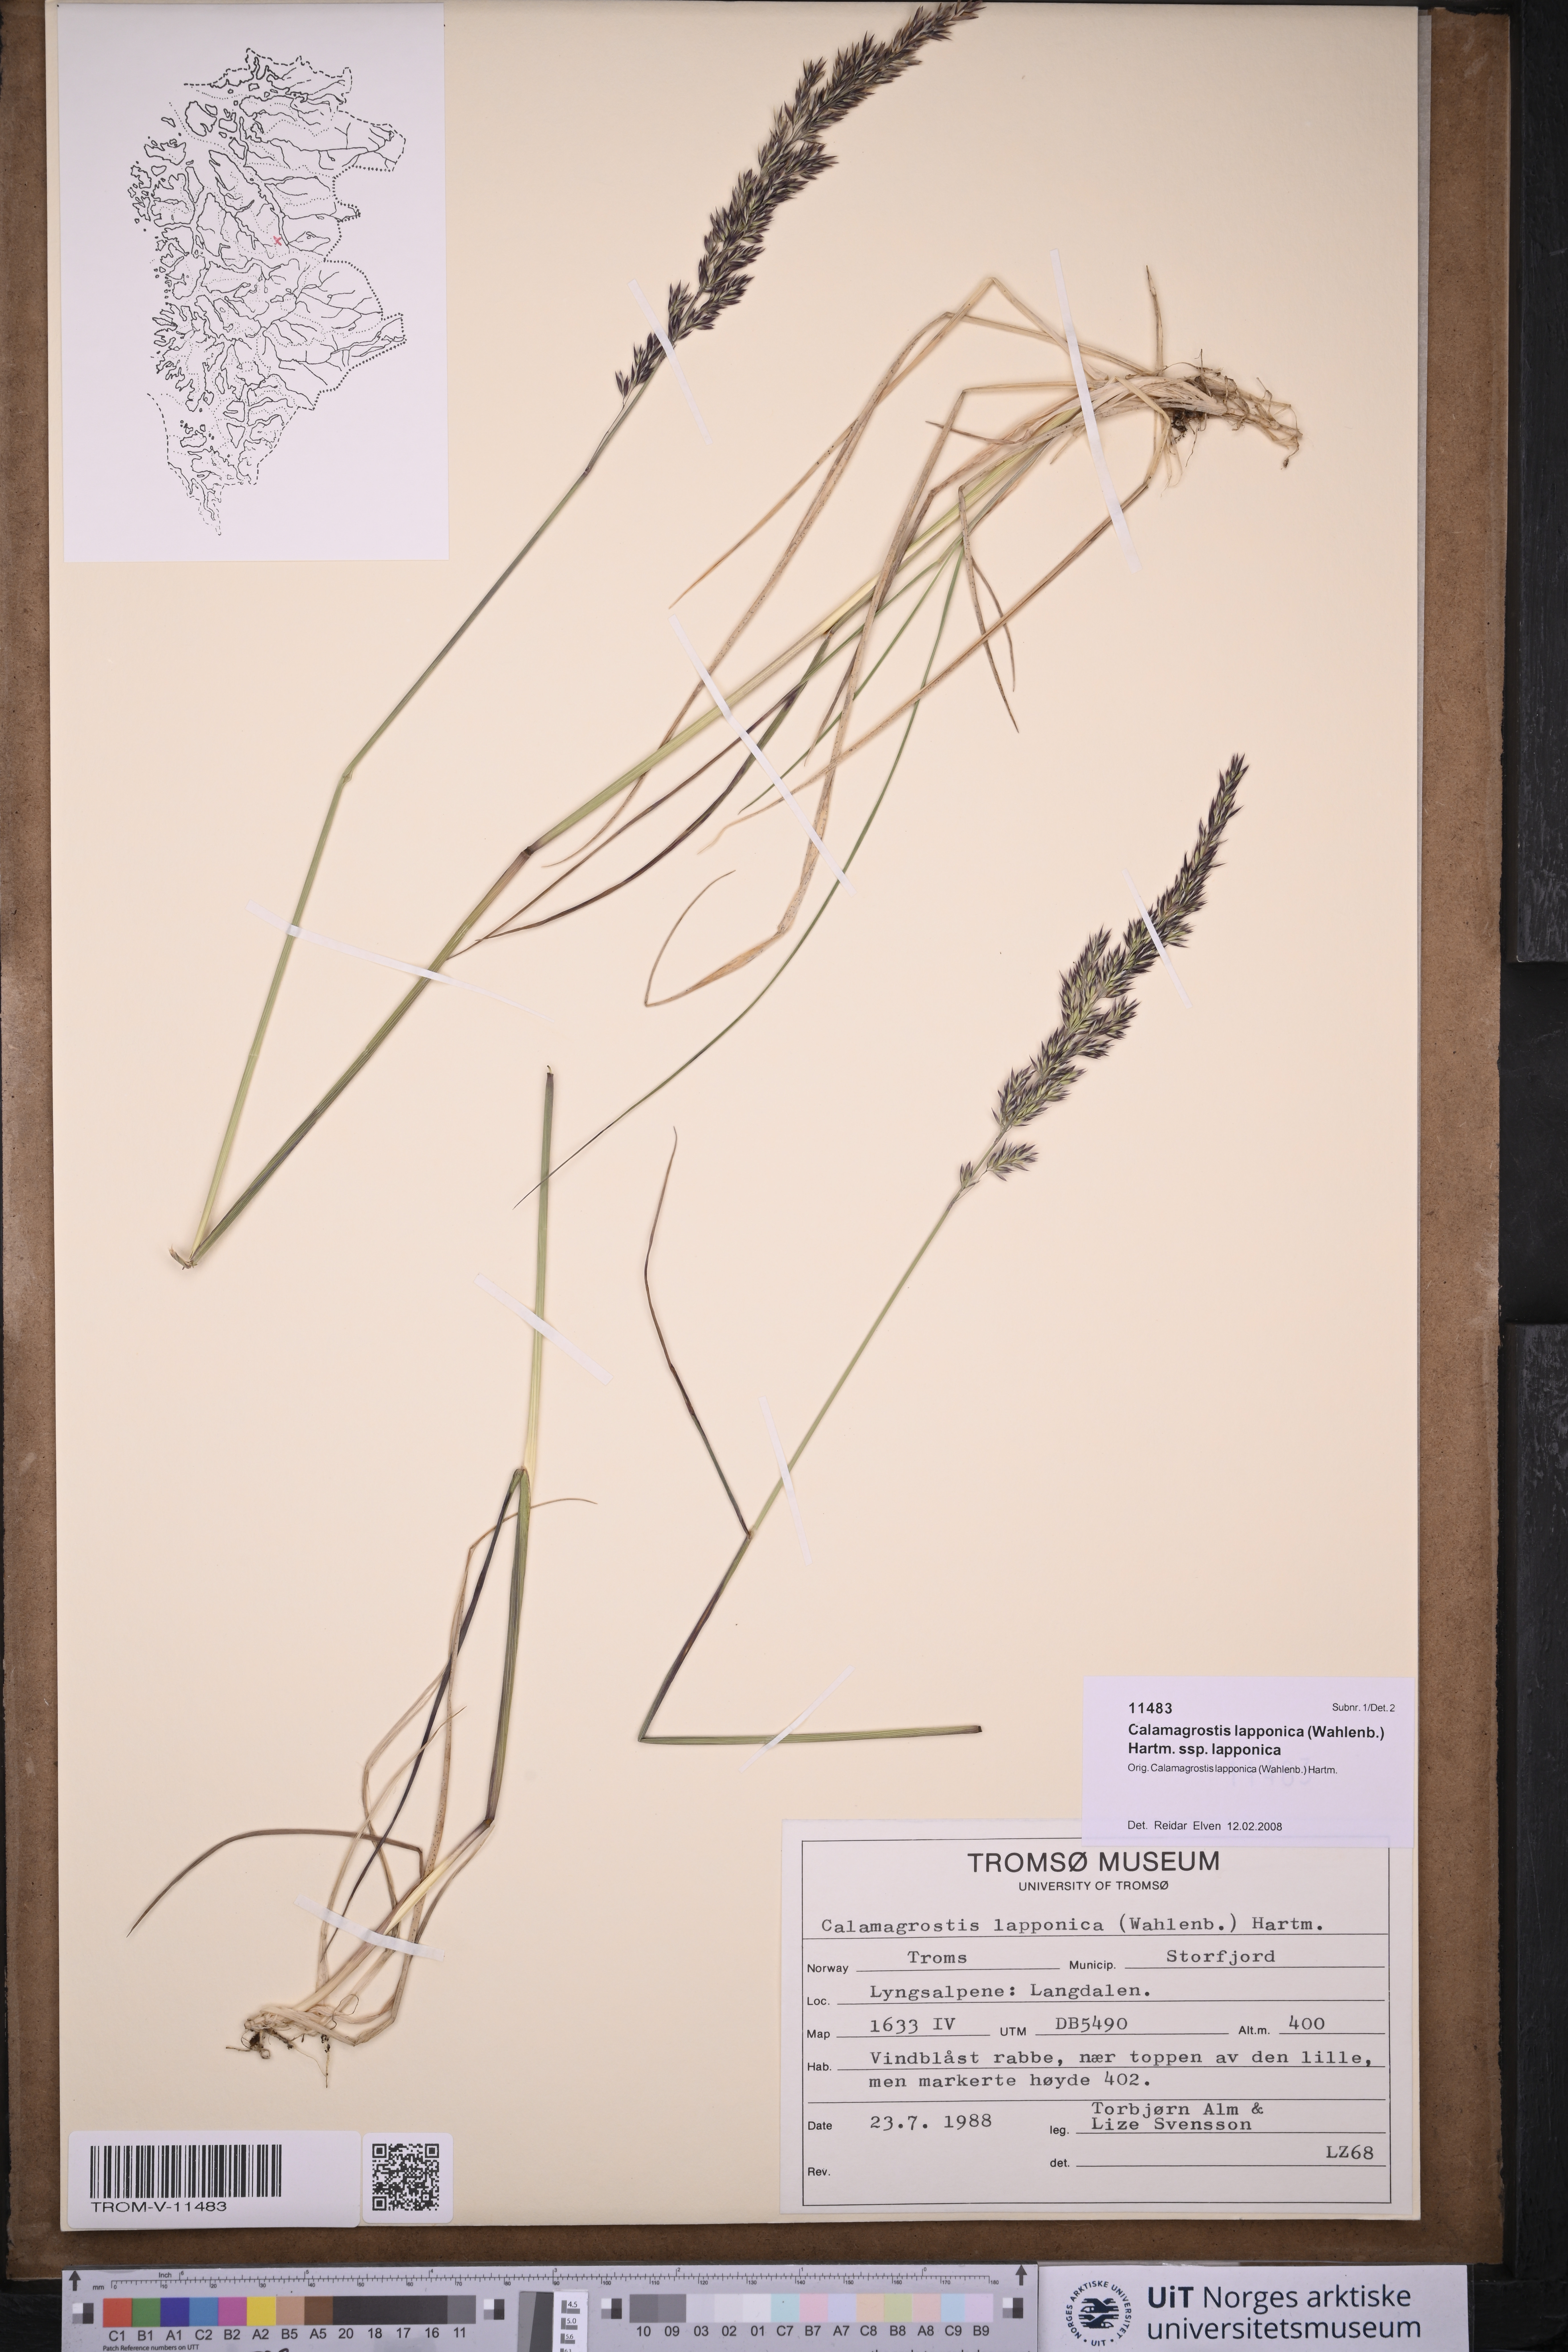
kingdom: Plantae
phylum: Tracheophyta
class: Liliopsida
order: Poales
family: Poaceae
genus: Calamagrostis
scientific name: Calamagrostis lapponica
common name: Lapland reedgrass
